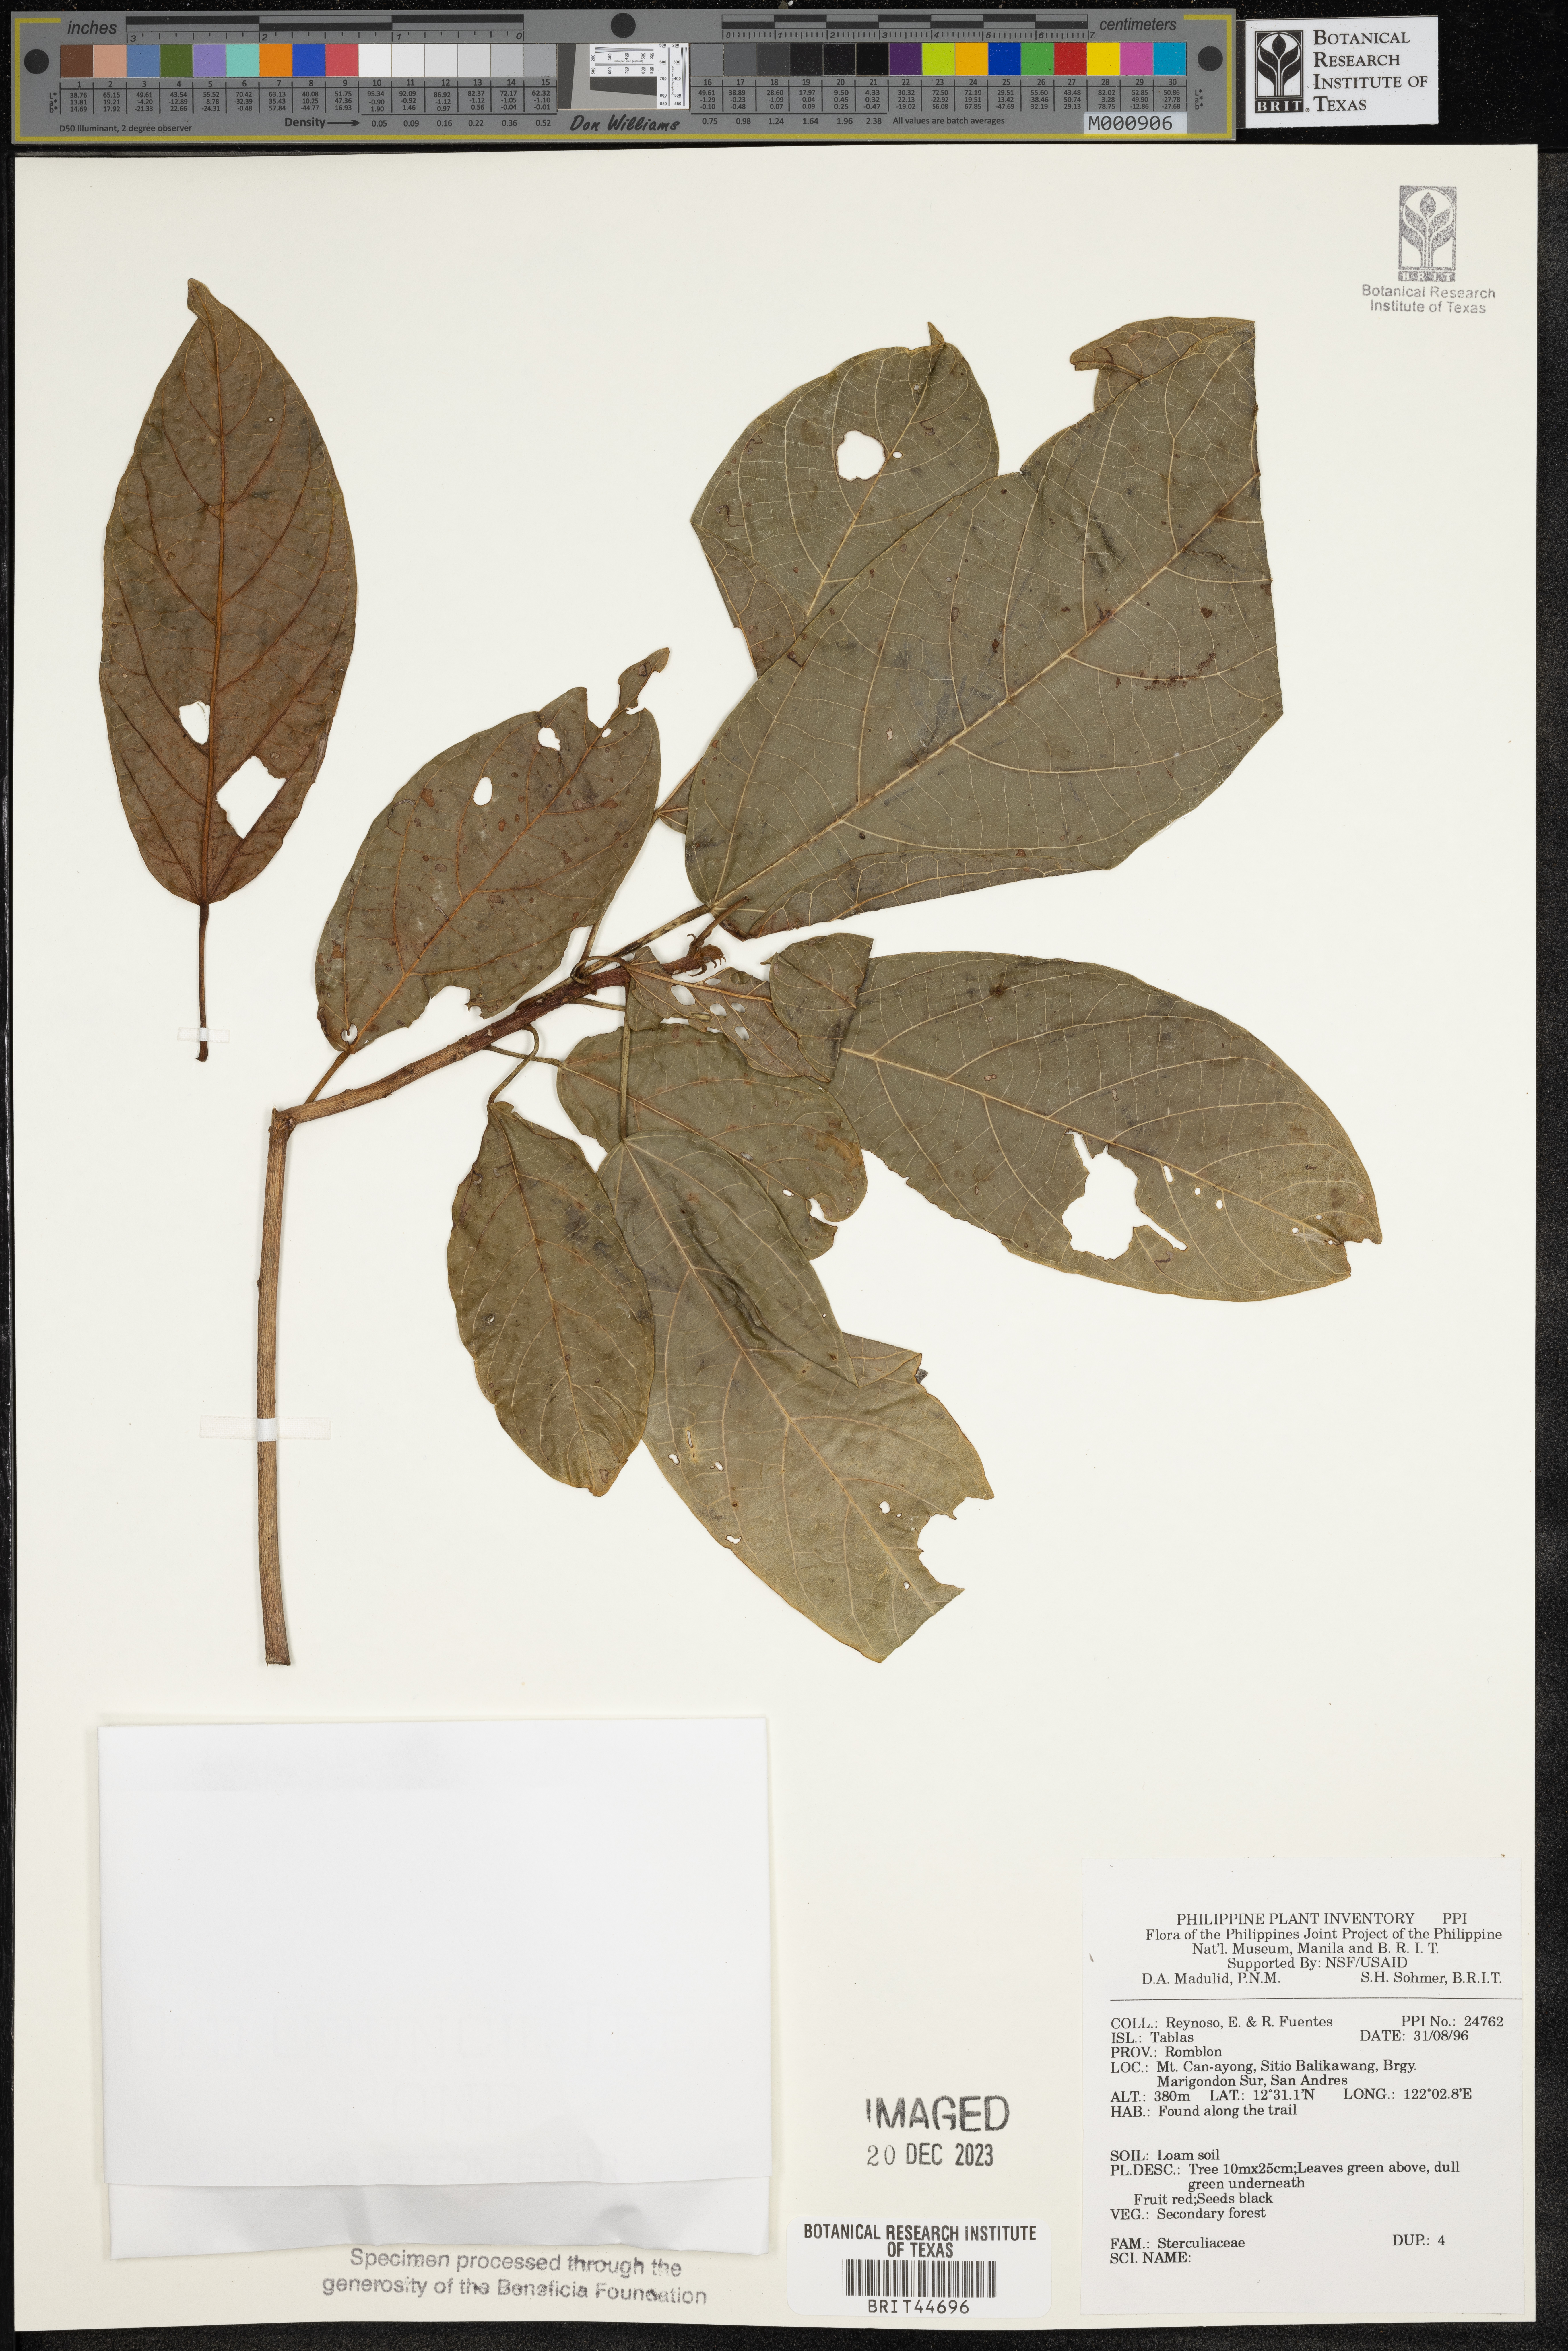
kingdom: Plantae
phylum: Tracheophyta
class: Magnoliopsida
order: Malvales
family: Sterculiaceae
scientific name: Sterculiaceae
